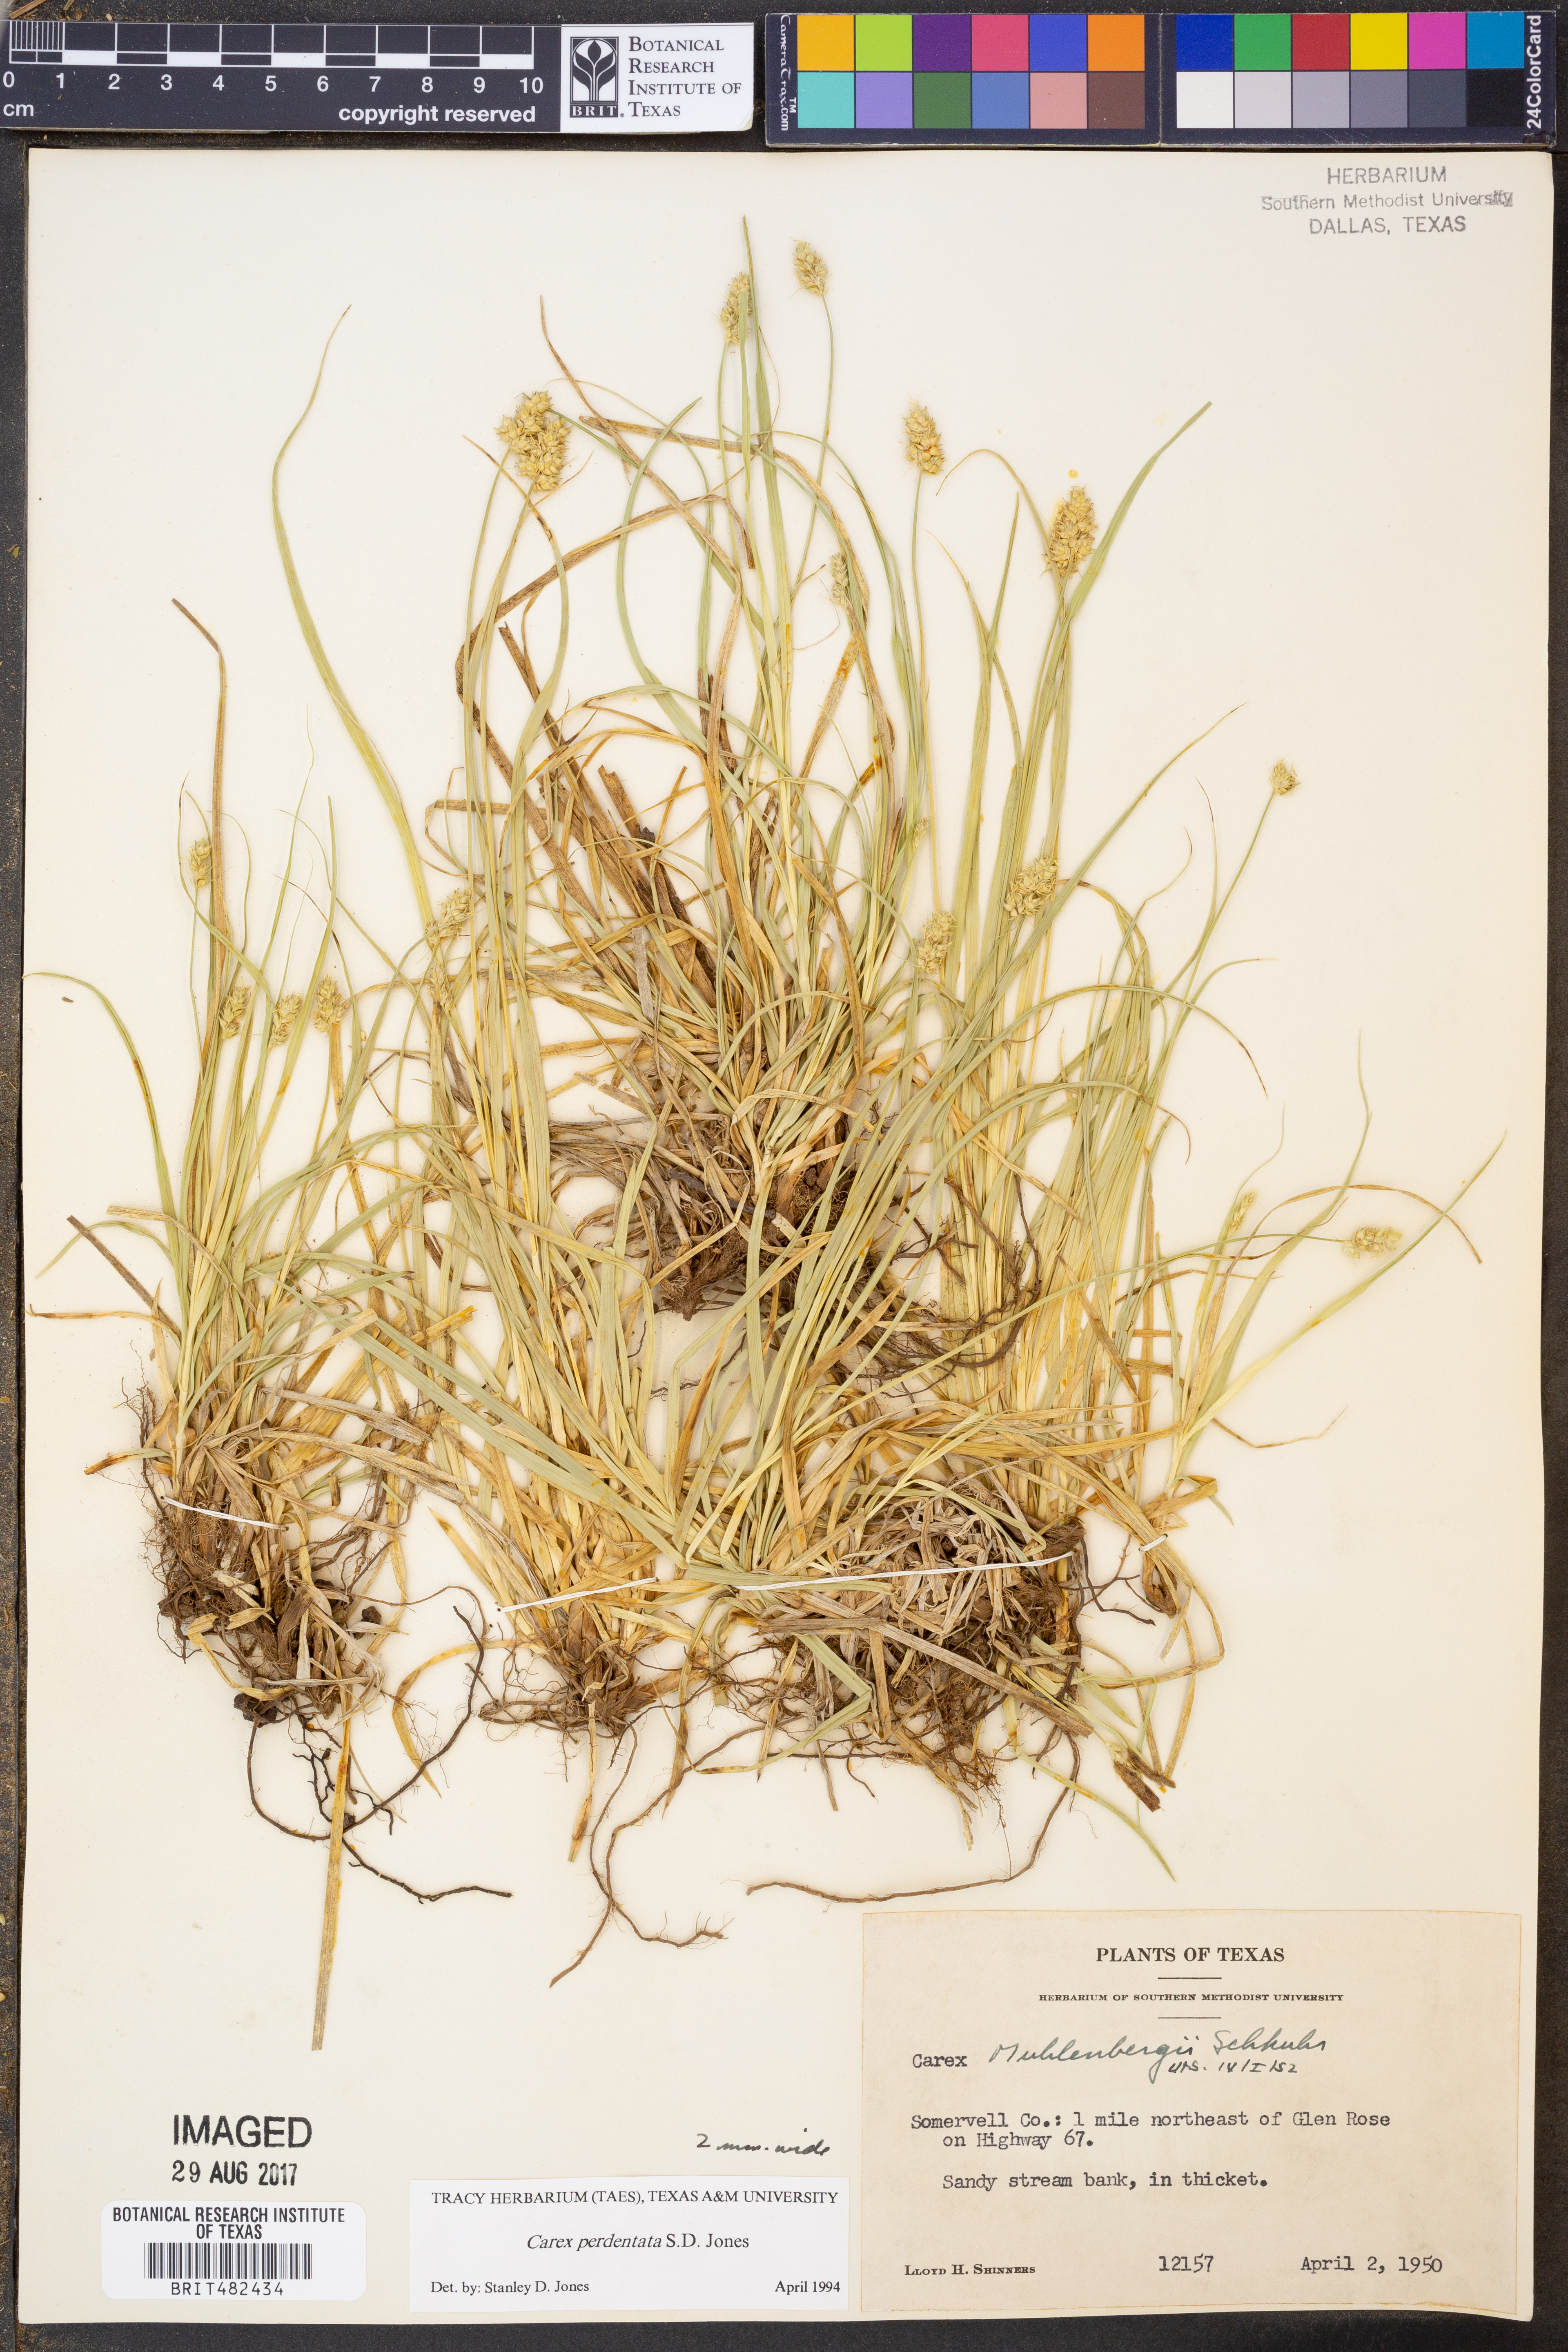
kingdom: Plantae
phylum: Tracheophyta
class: Liliopsida
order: Poales
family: Cyperaceae
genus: Carex
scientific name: Carex perdentata
